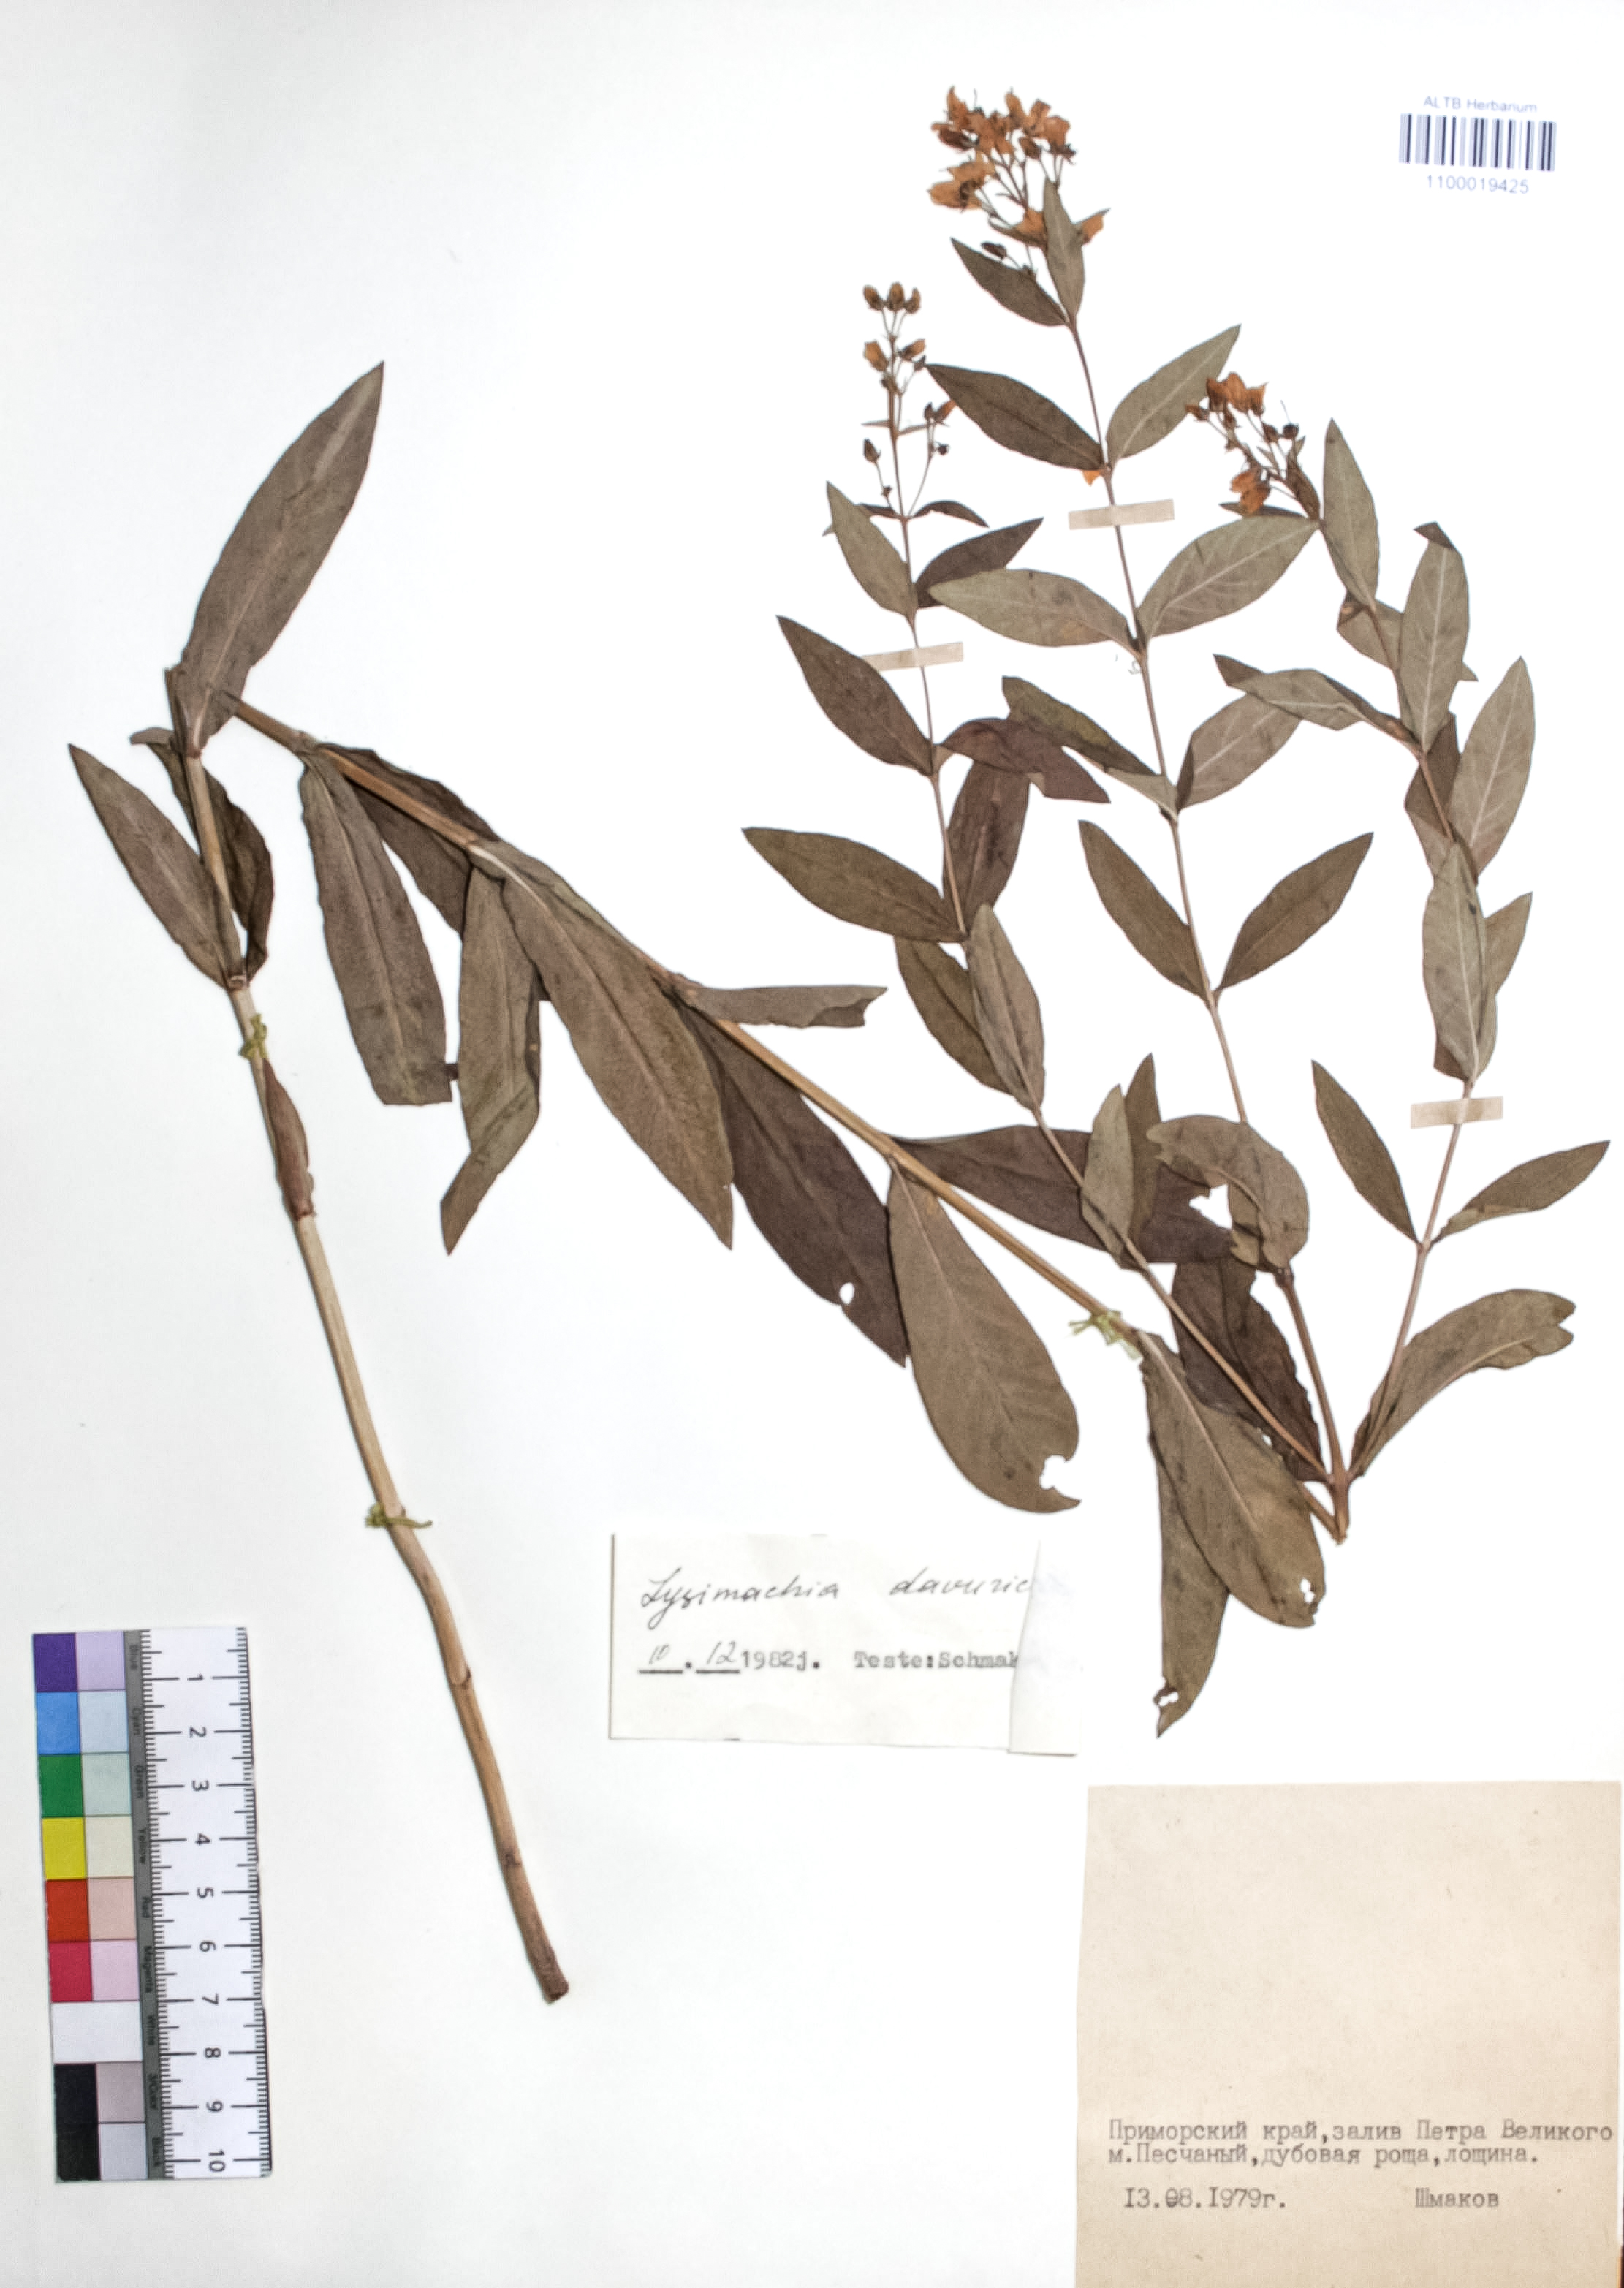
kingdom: Plantae
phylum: Tracheophyta
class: Magnoliopsida
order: Ericales
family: Primulaceae
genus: Lysimachia
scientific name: Lysimachia davurica
